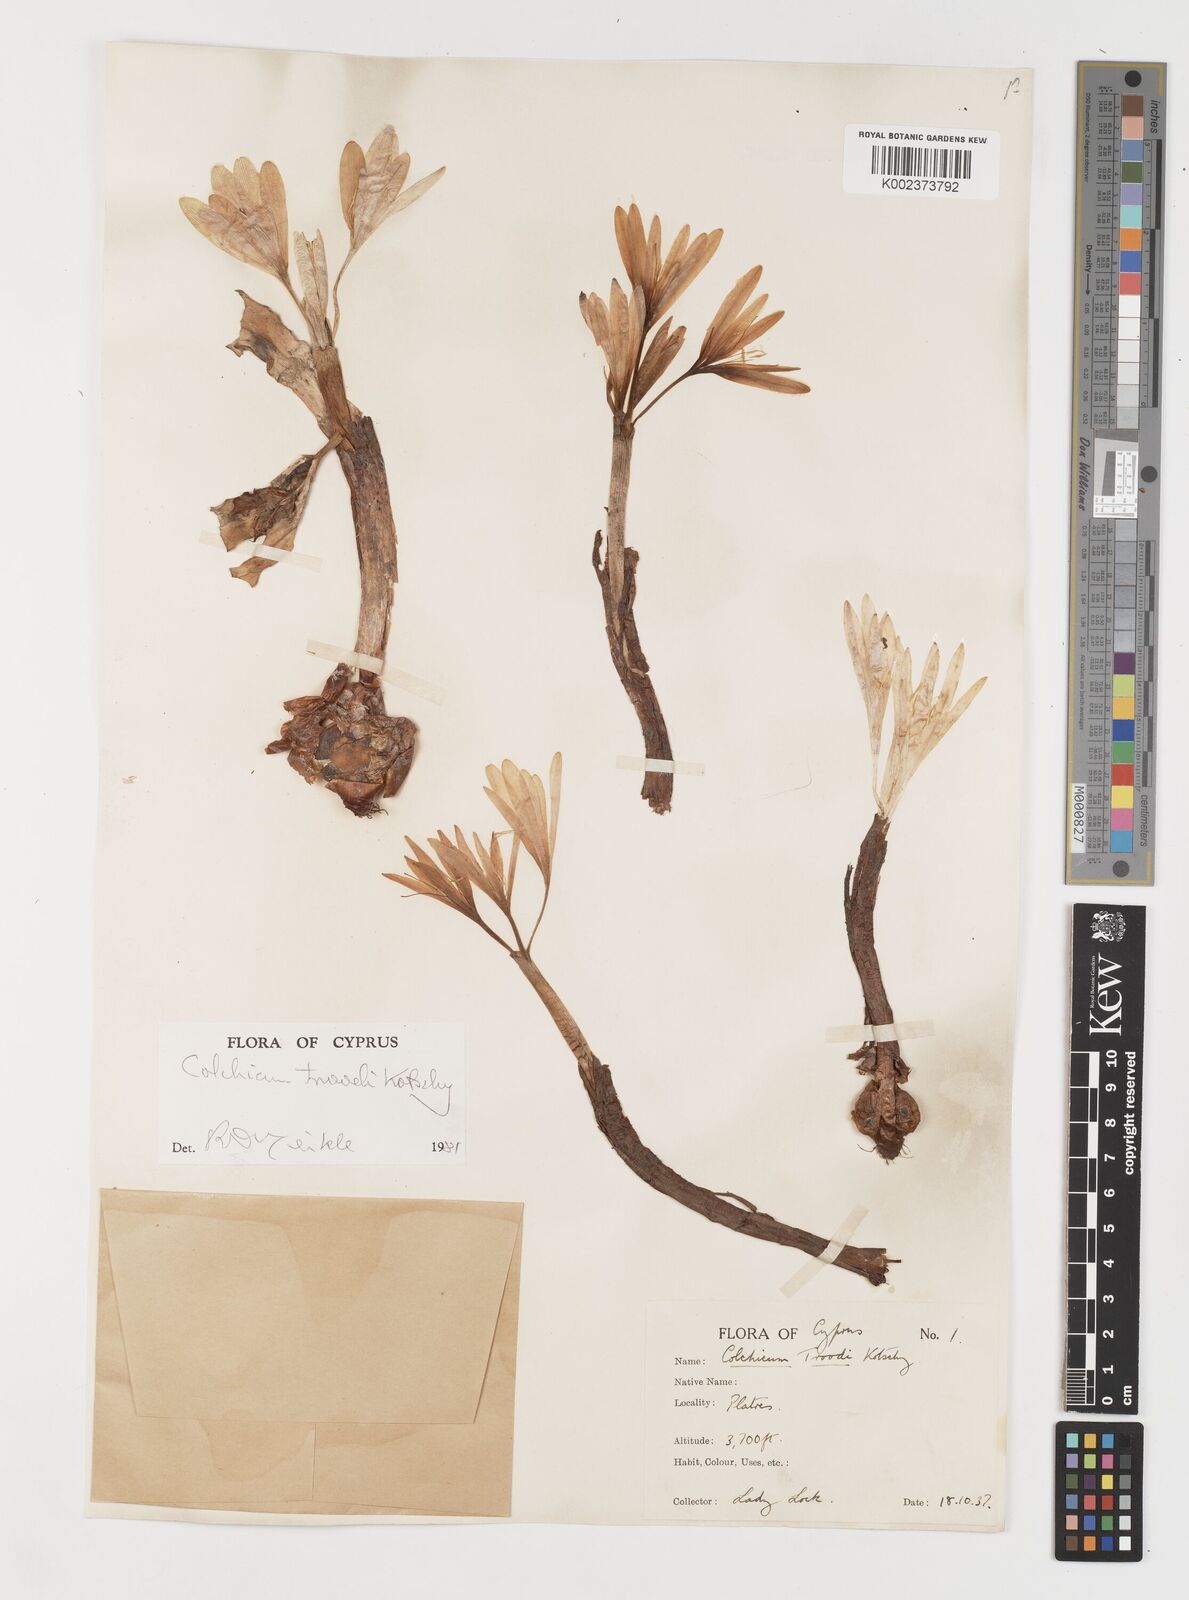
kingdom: Plantae
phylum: Tracheophyta
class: Liliopsida
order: Liliales
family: Colchicaceae
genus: Colchicum
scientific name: Colchicum troodi
